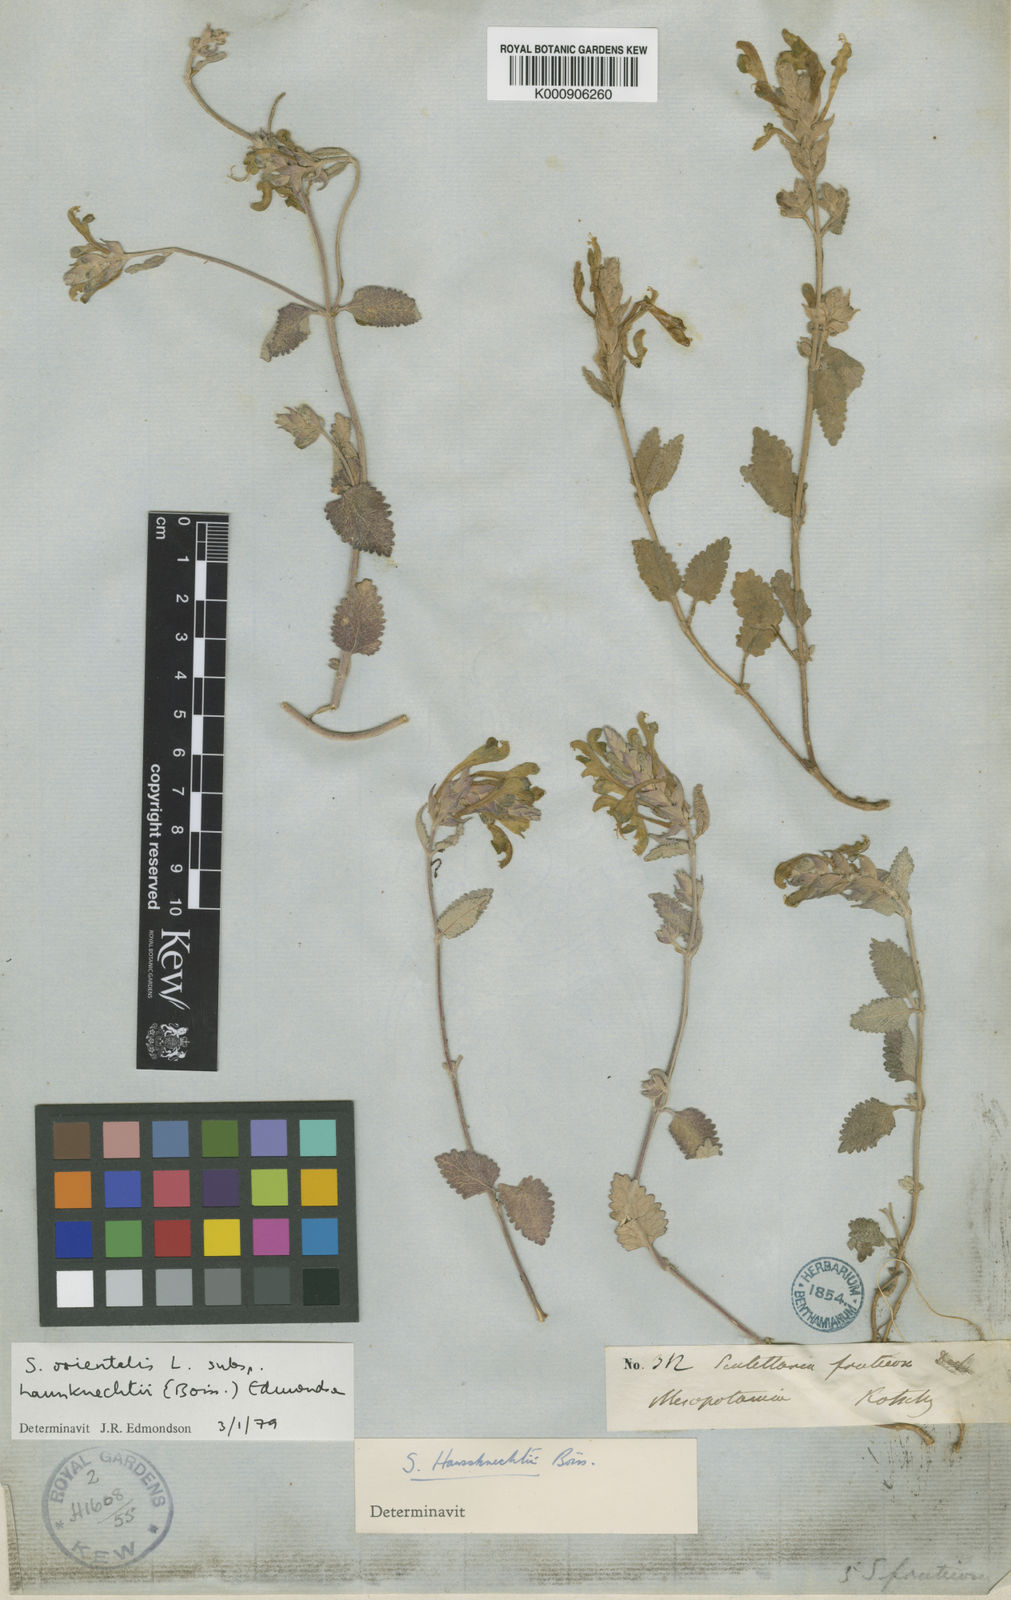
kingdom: Plantae
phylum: Tracheophyta
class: Magnoliopsida
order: Lamiales
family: Lamiaceae
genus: Scutellaria
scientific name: Scutellaria orientalis
